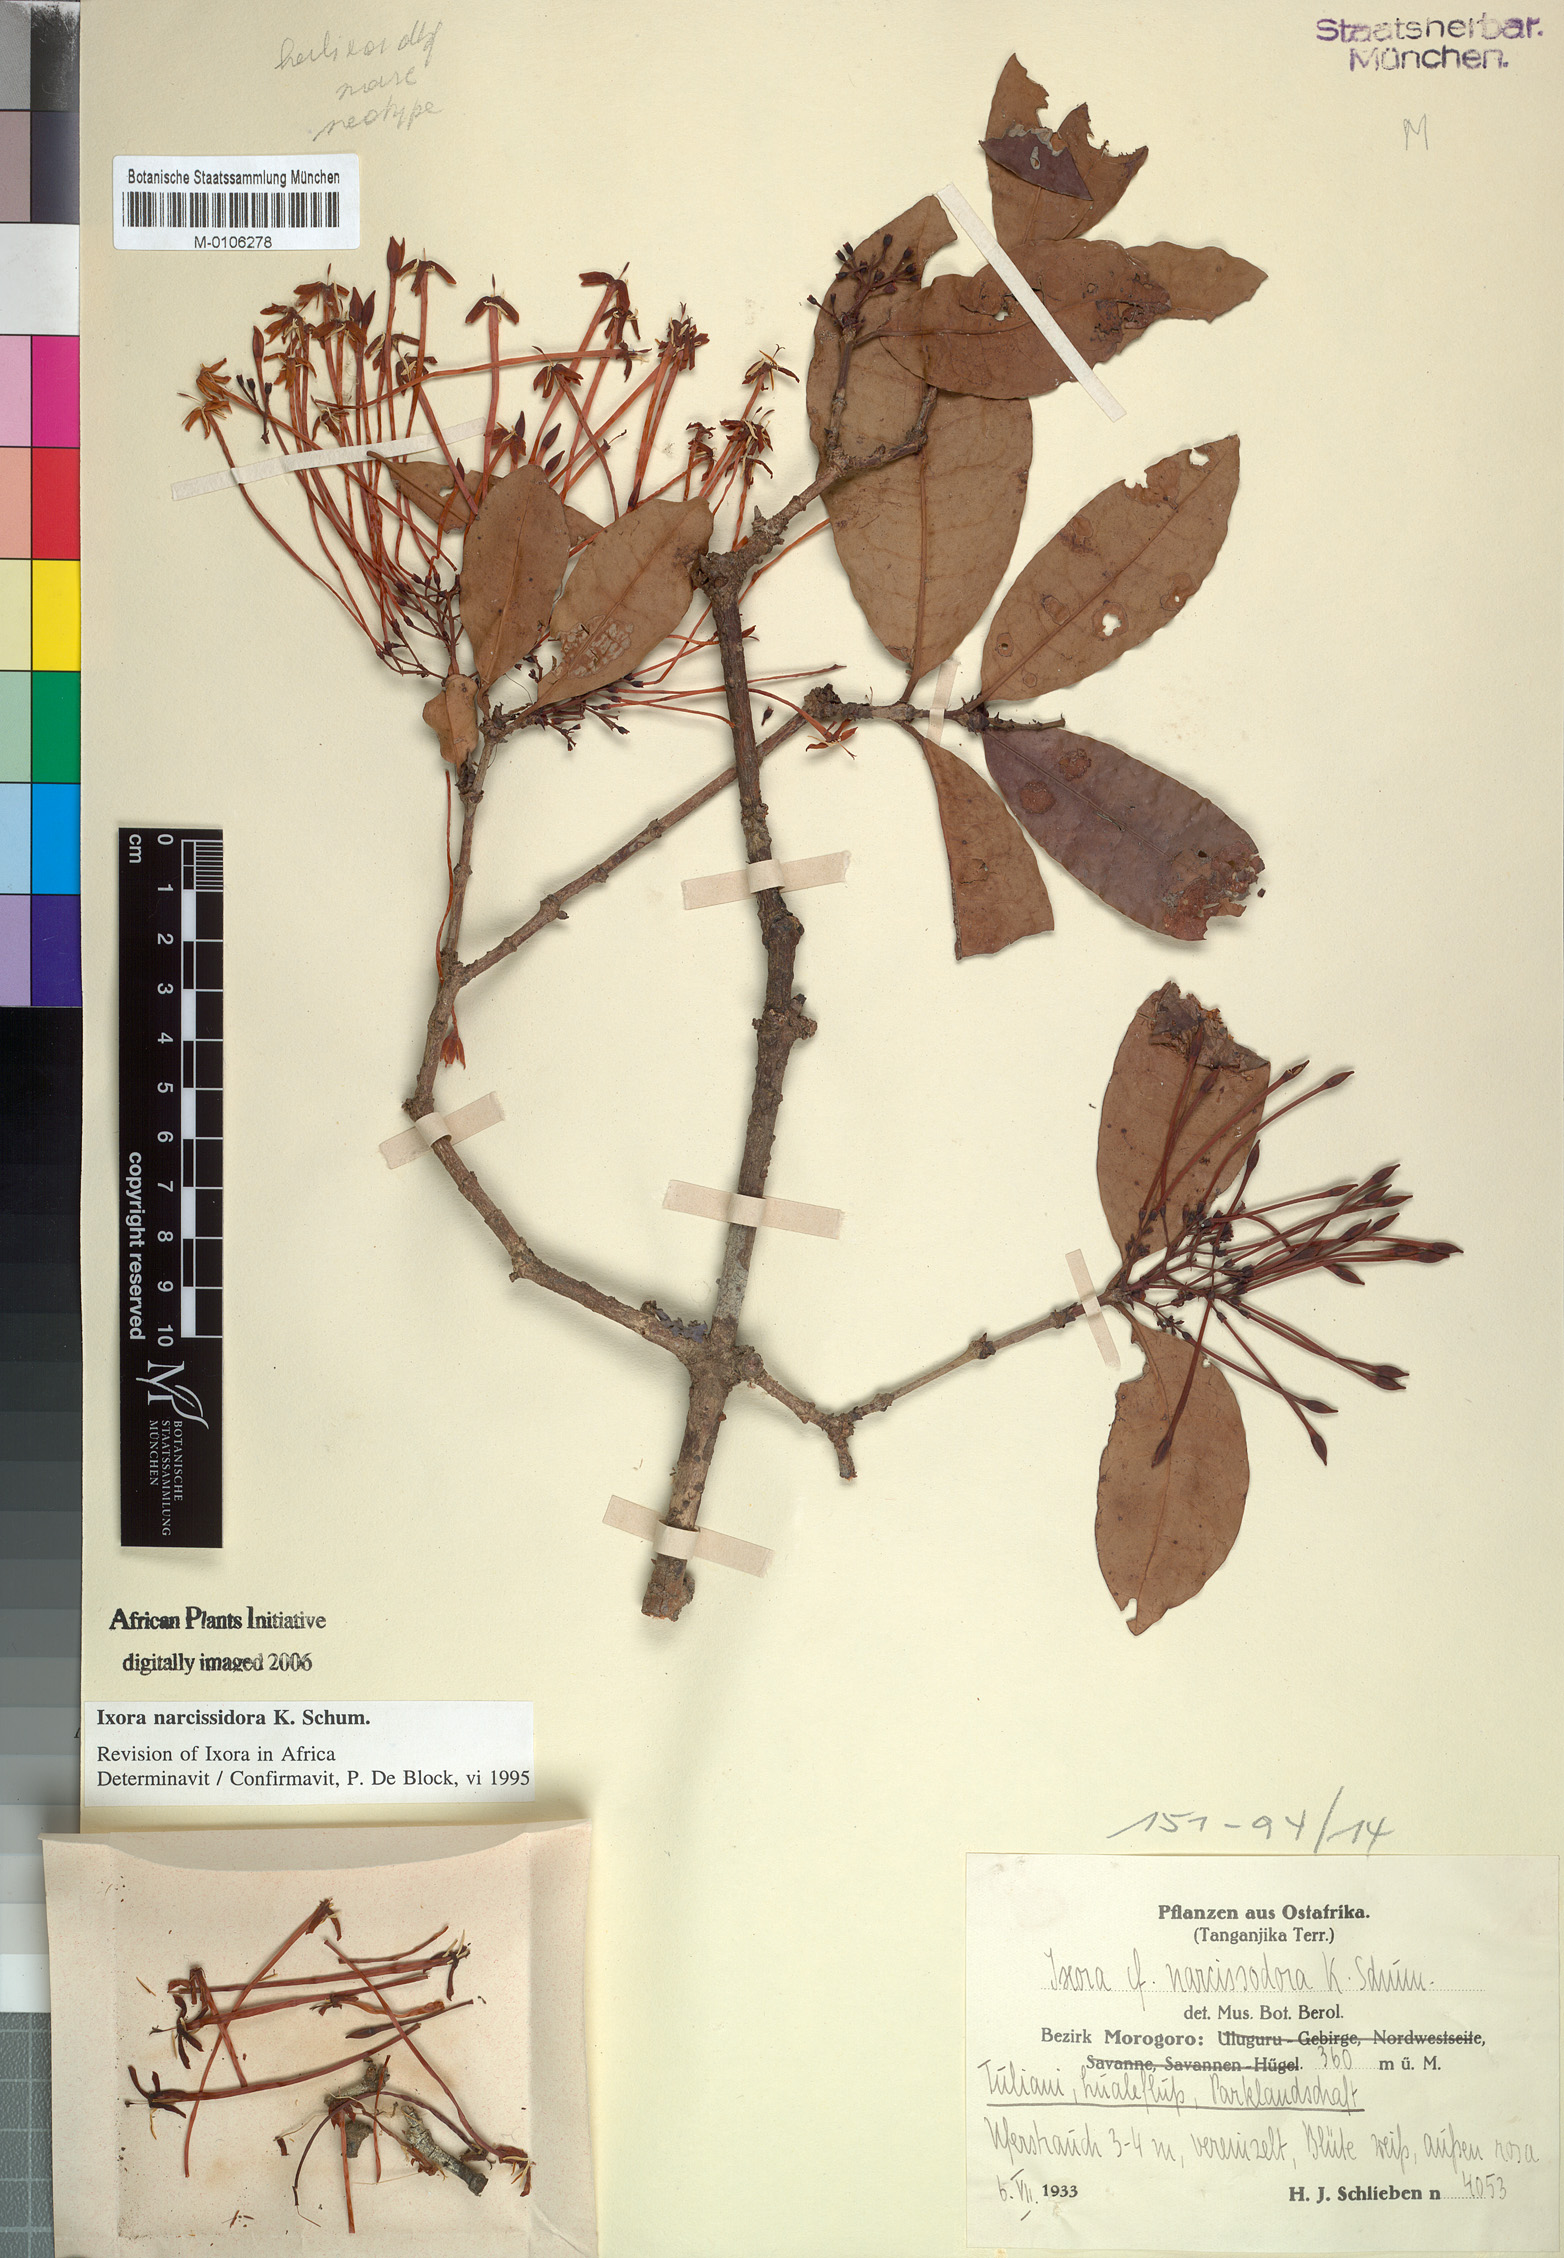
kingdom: Plantae
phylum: Tracheophyta
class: Magnoliopsida
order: Gentianales
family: Rubiaceae
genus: Ixora
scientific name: Ixora narcissodora
